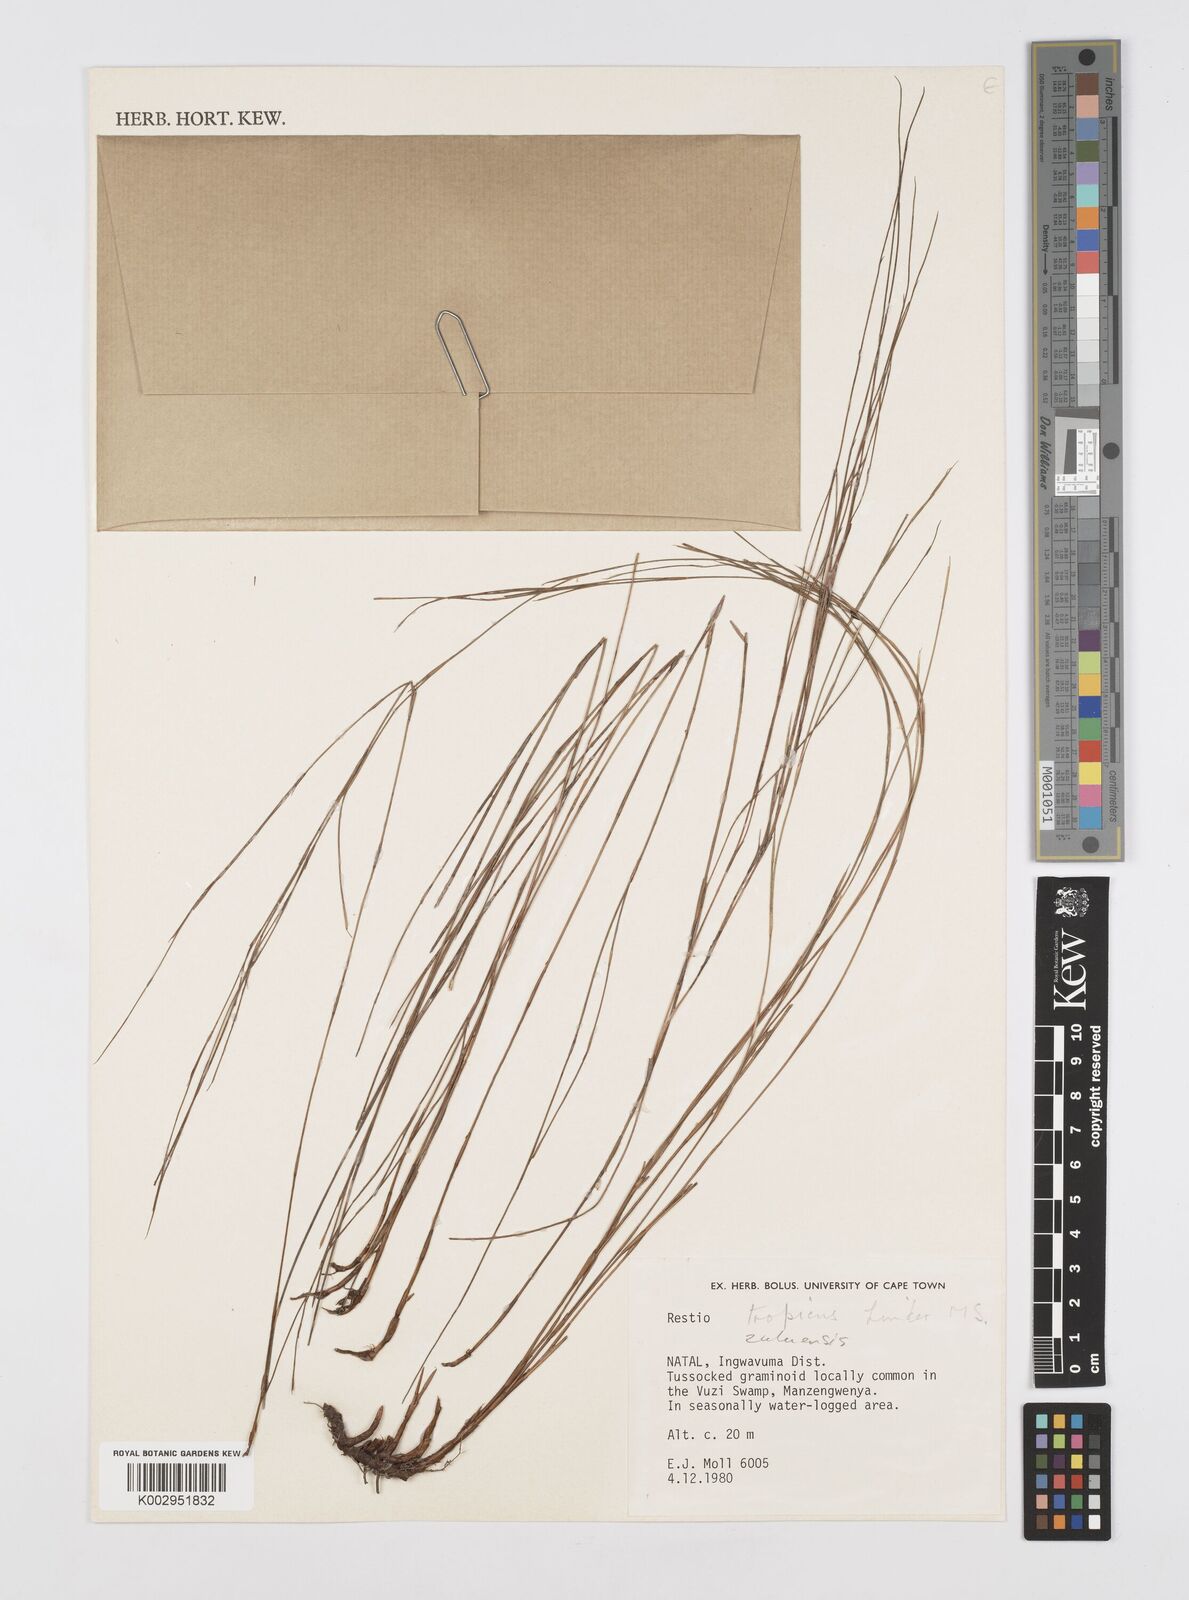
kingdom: Plantae
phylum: Tracheophyta
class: Liliopsida
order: Poales
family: Restionaceae
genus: Restio
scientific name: Restio
